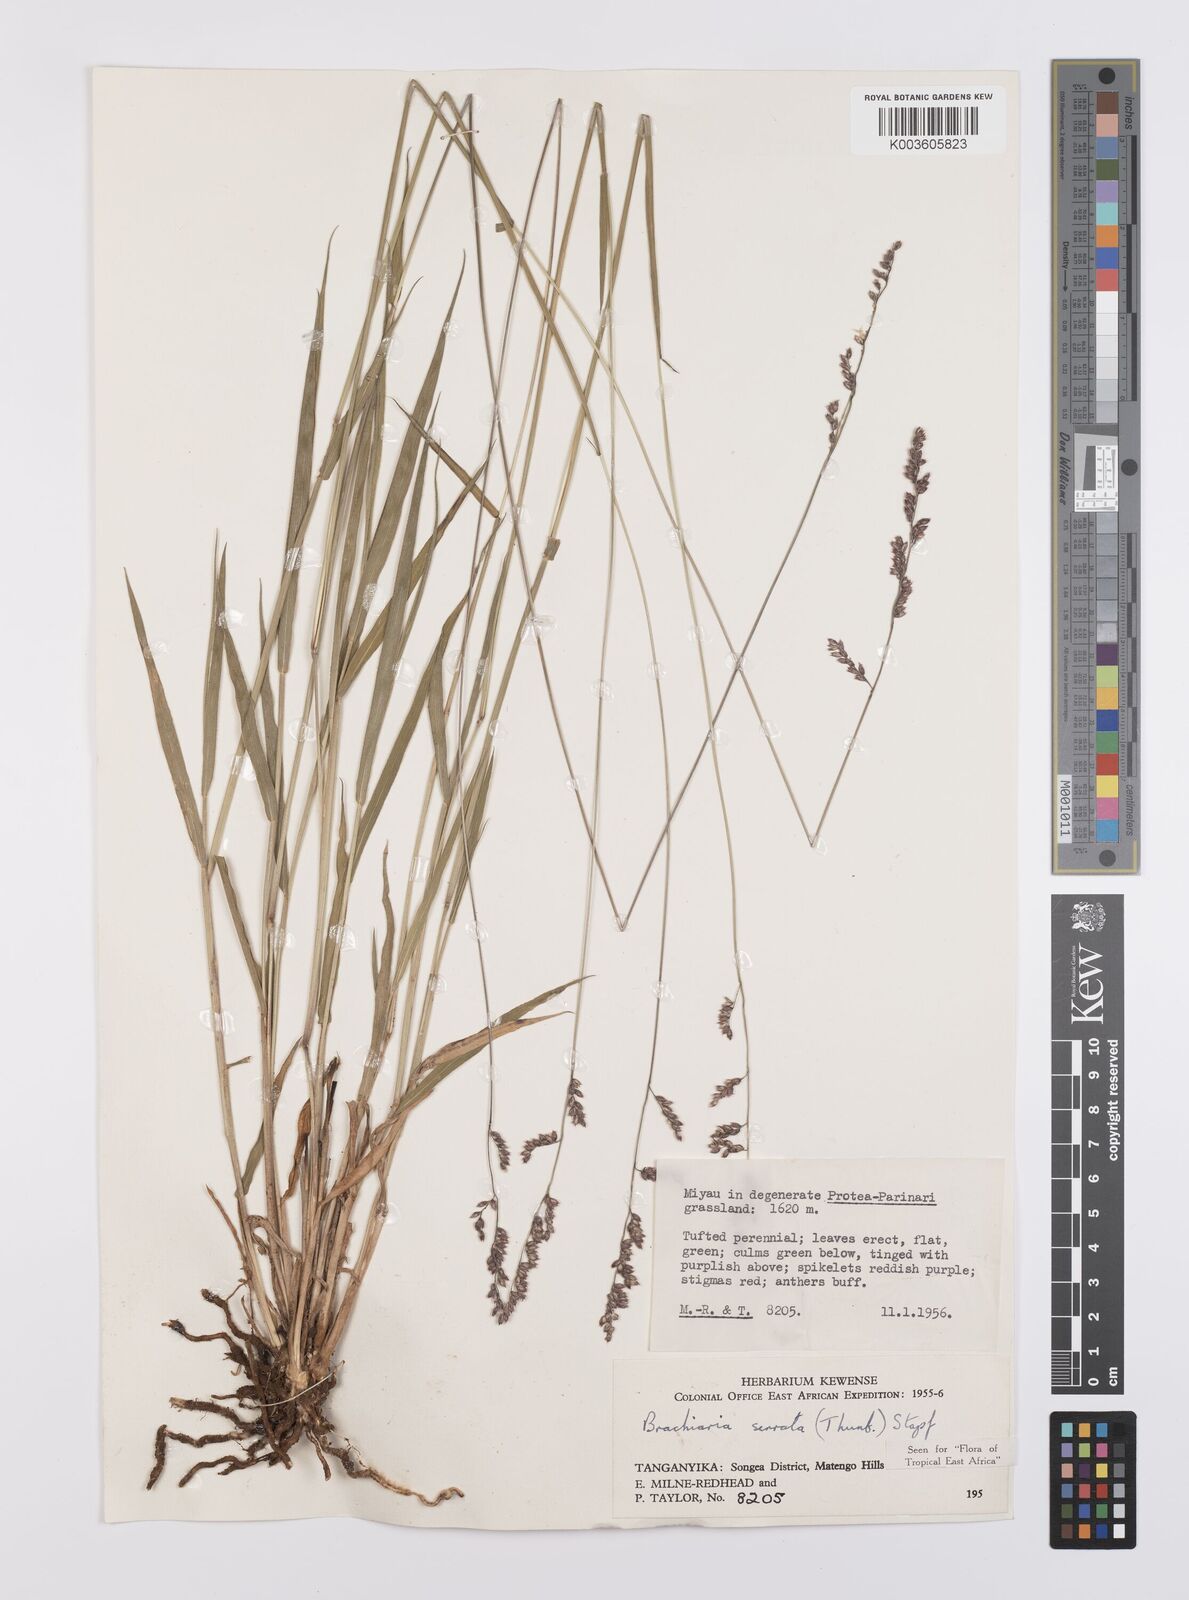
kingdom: Plantae
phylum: Tracheophyta
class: Liliopsida
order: Poales
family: Poaceae
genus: Urochloa
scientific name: Urochloa serrata
